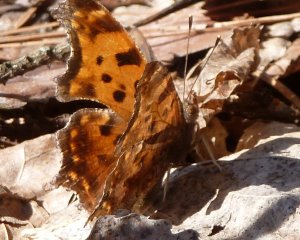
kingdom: Animalia
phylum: Arthropoda
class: Insecta
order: Lepidoptera
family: Nymphalidae
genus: Polygonia
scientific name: Polygonia comma
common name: Eastern Comma
